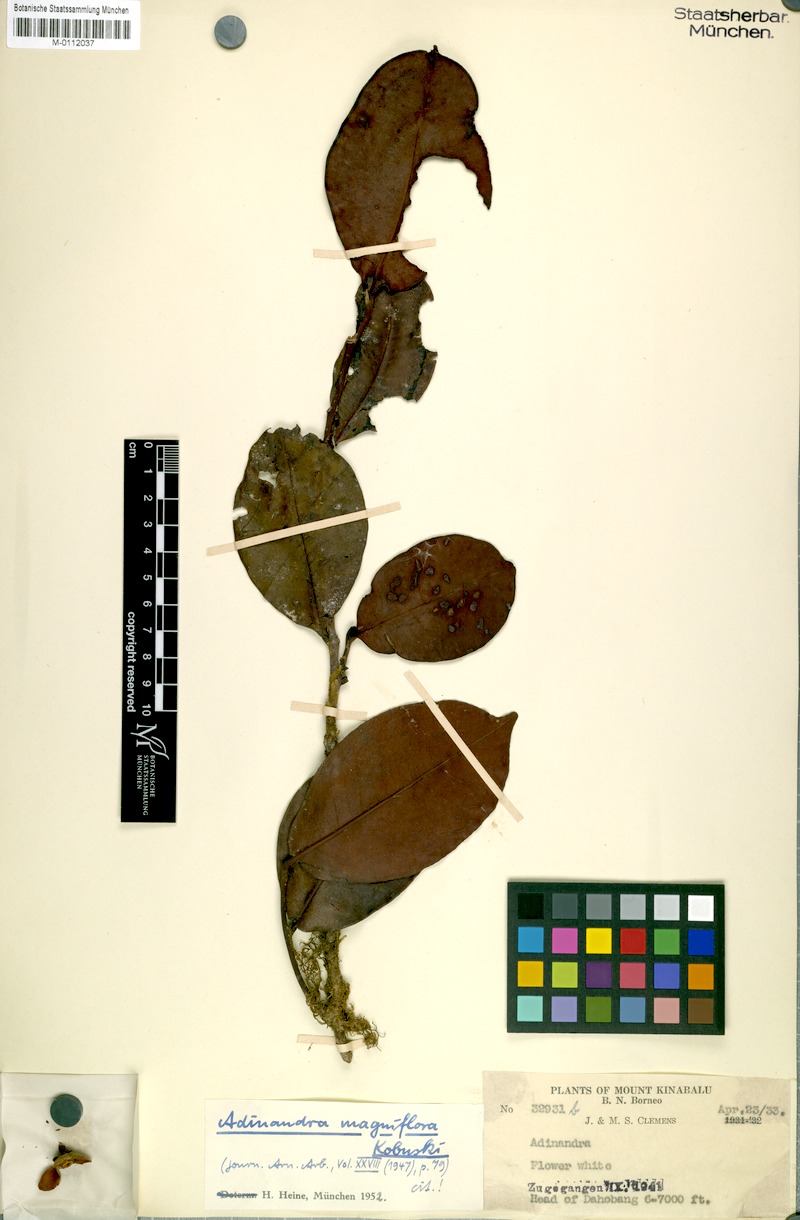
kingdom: Plantae
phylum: Tracheophyta
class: Magnoliopsida
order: Ericales
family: Pentaphylacaceae
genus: Adinandra
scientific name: Adinandra magniflora
